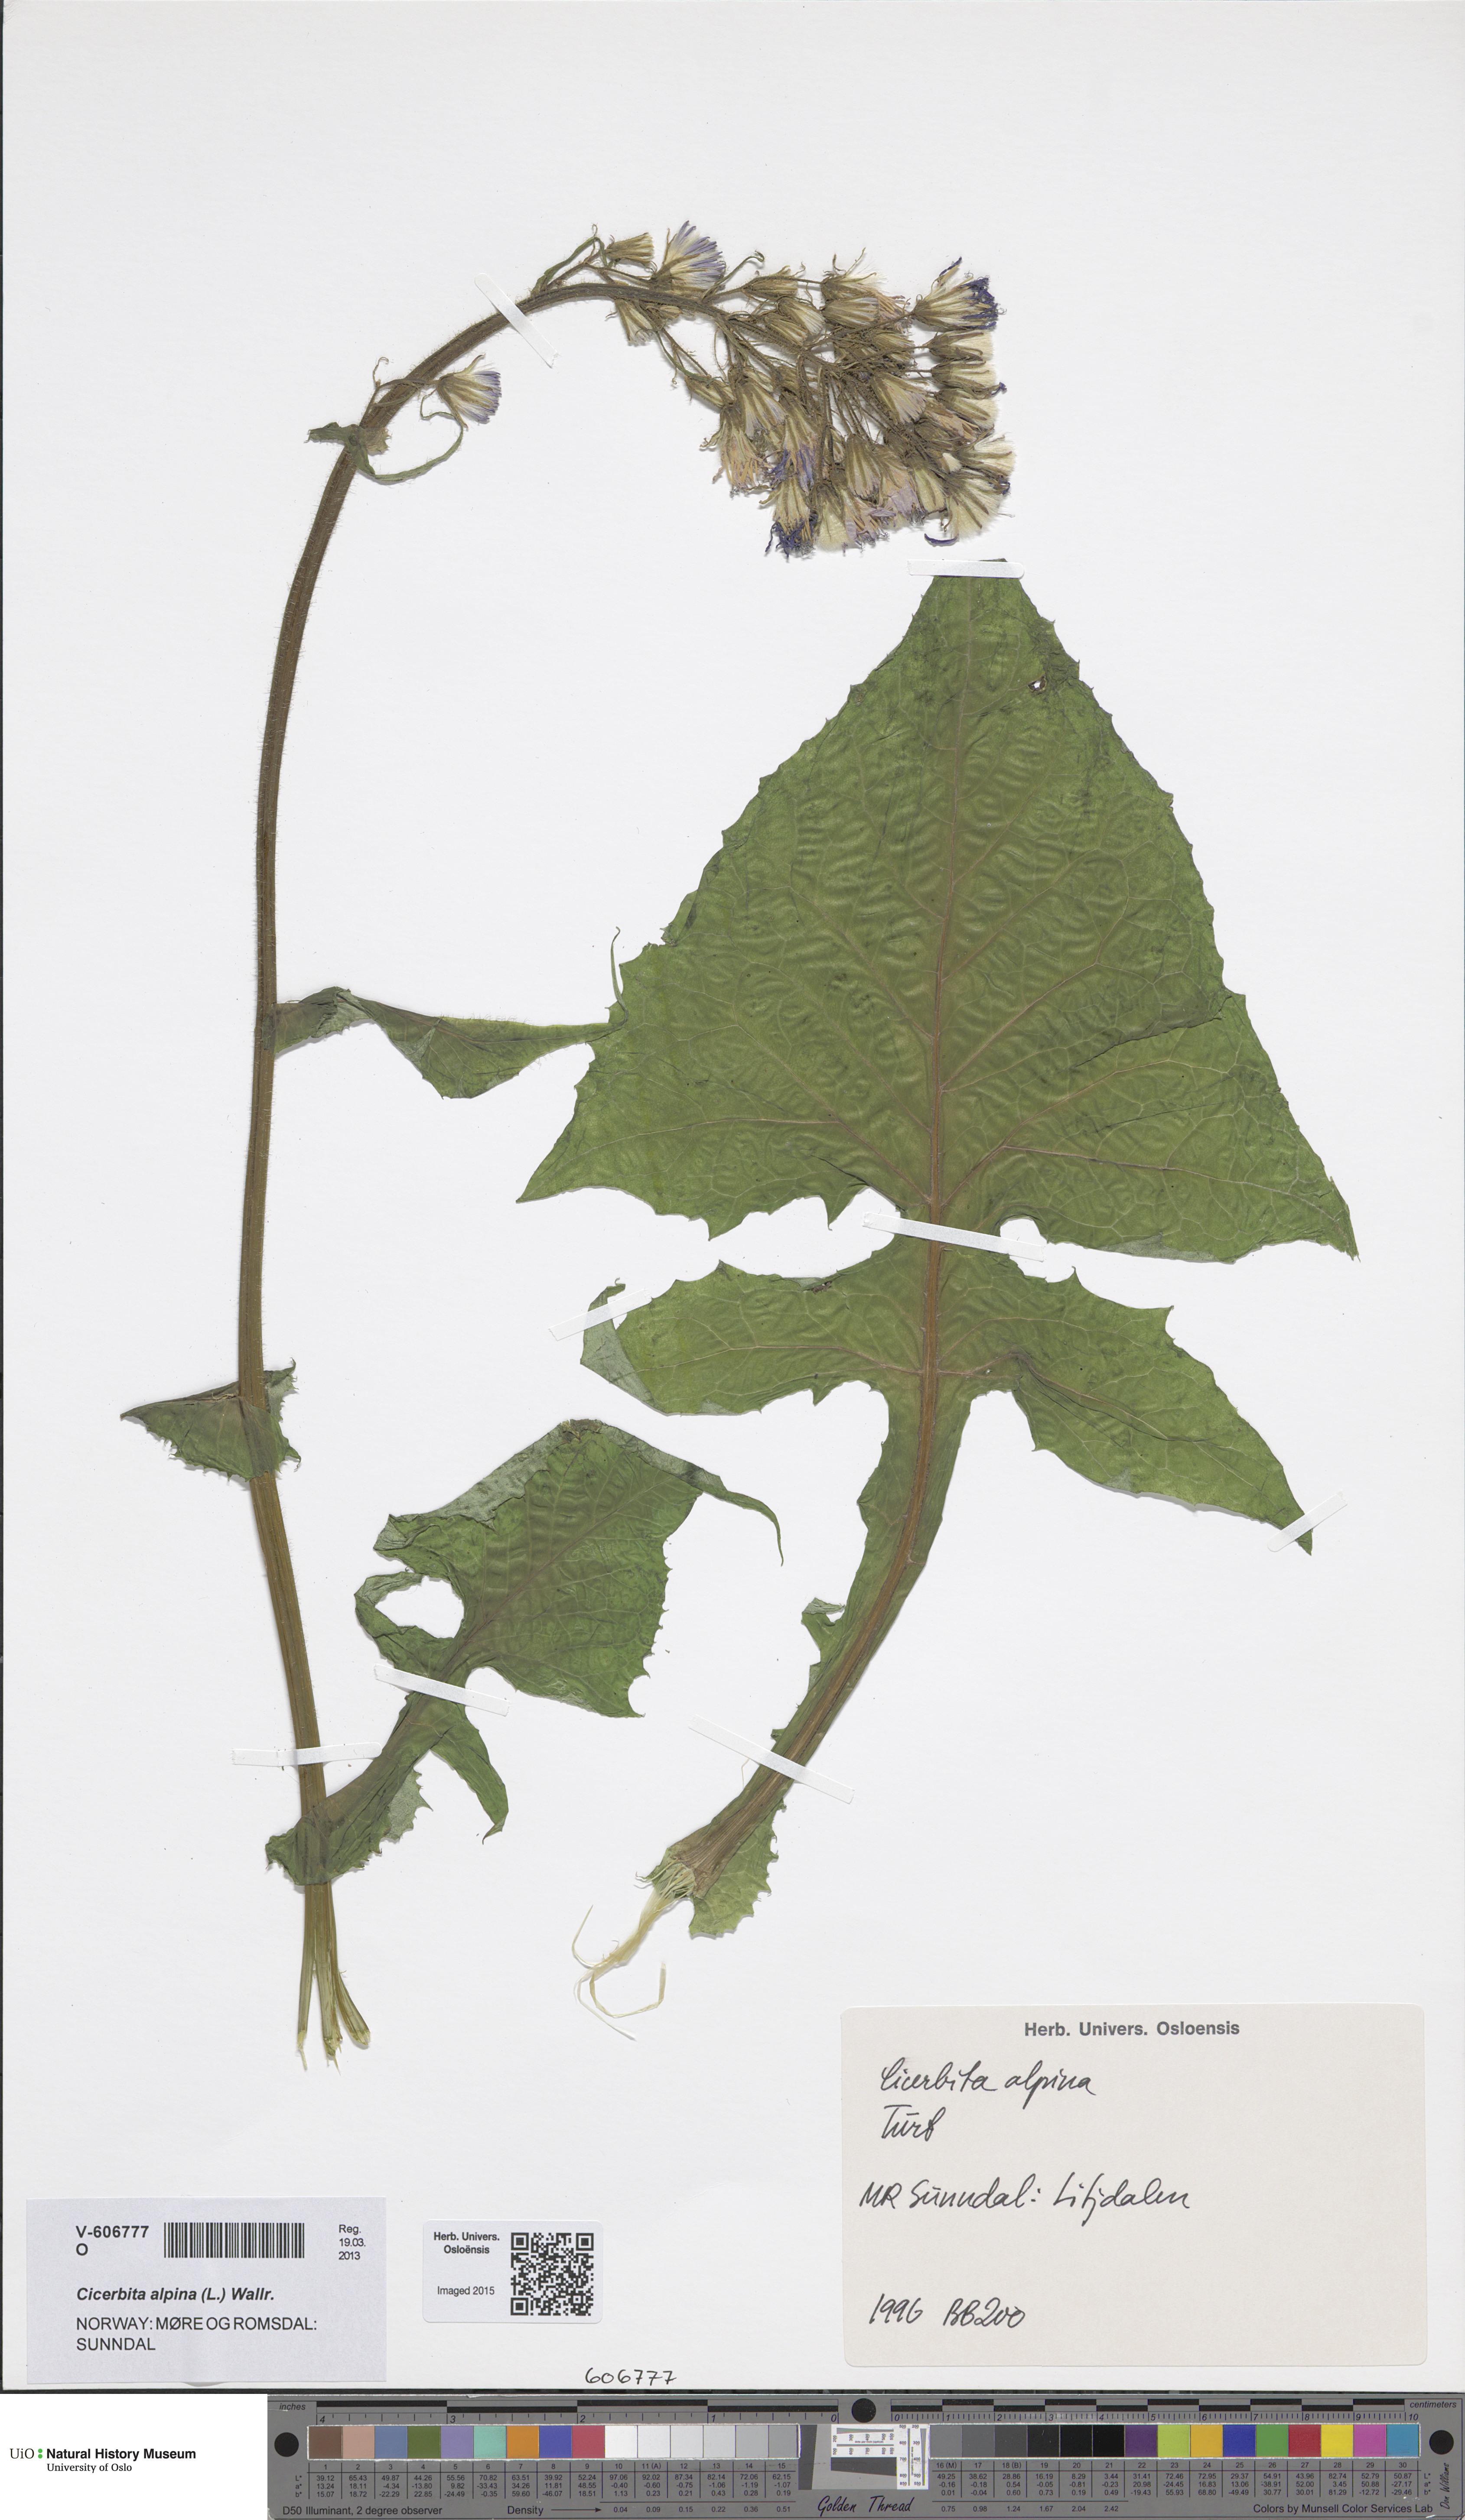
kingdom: Plantae
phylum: Tracheophyta
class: Magnoliopsida
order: Asterales
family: Asteraceae
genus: Cicerbita
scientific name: Cicerbita alpina
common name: Alpine blue-sow-thistle
